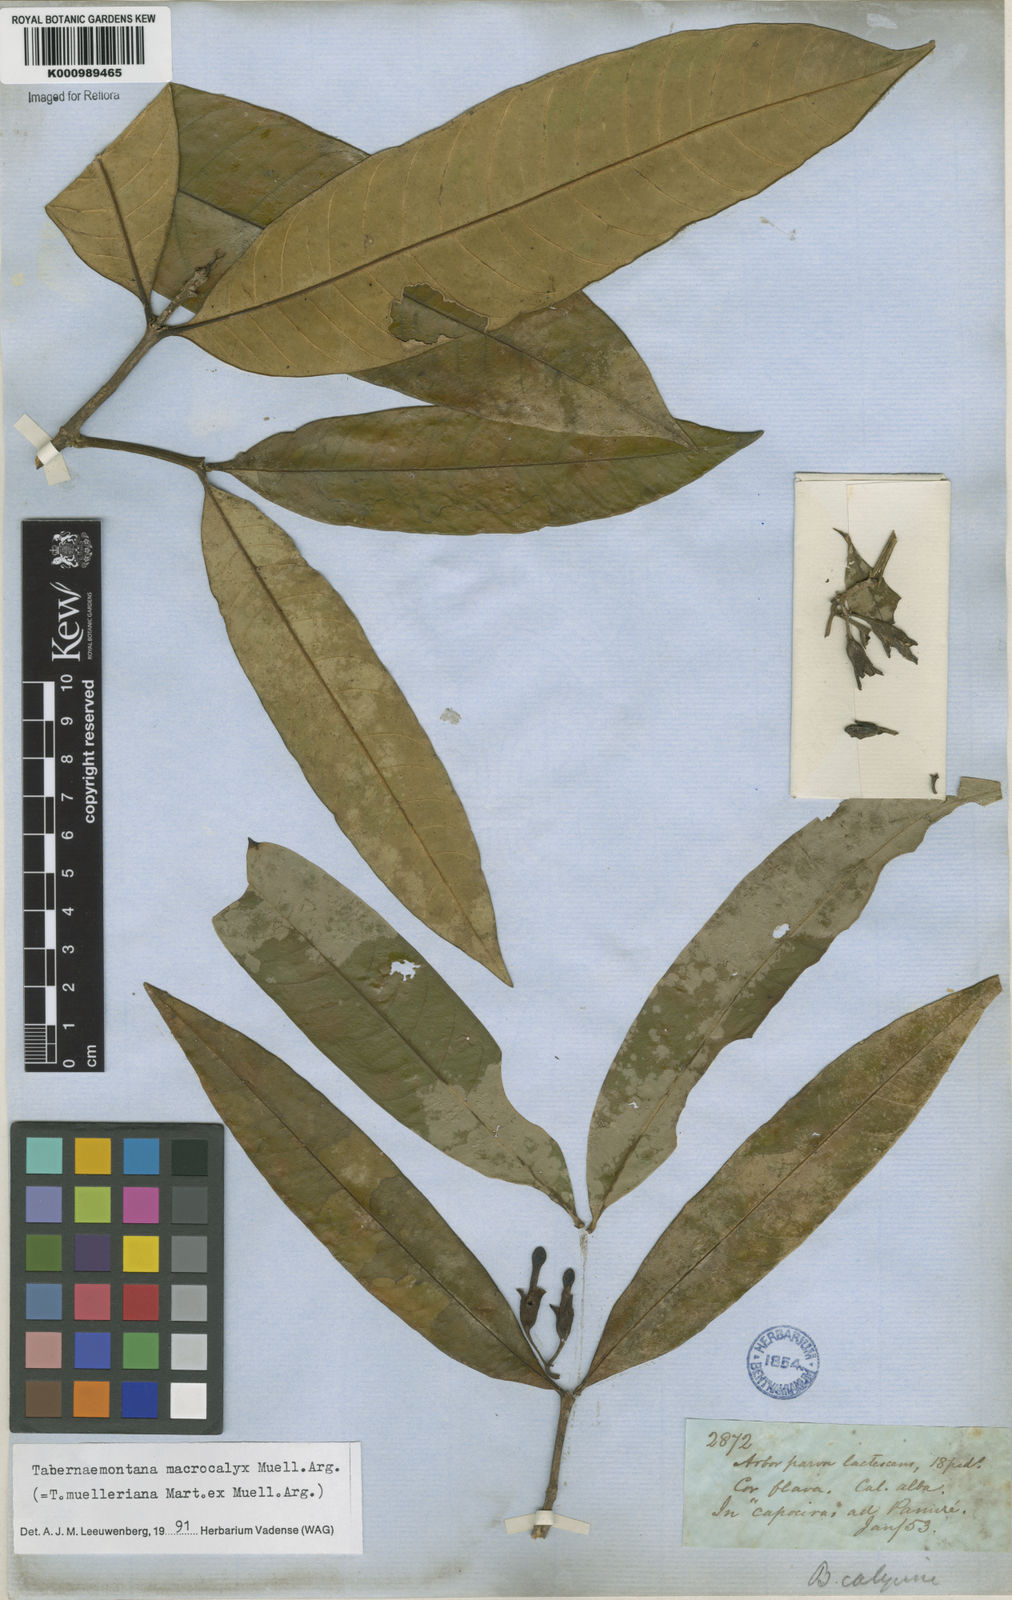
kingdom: Plantae
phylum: Tracheophyta
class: Magnoliopsida
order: Gentianales
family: Apocynaceae
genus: Tabernaemontana
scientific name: Tabernaemontana
